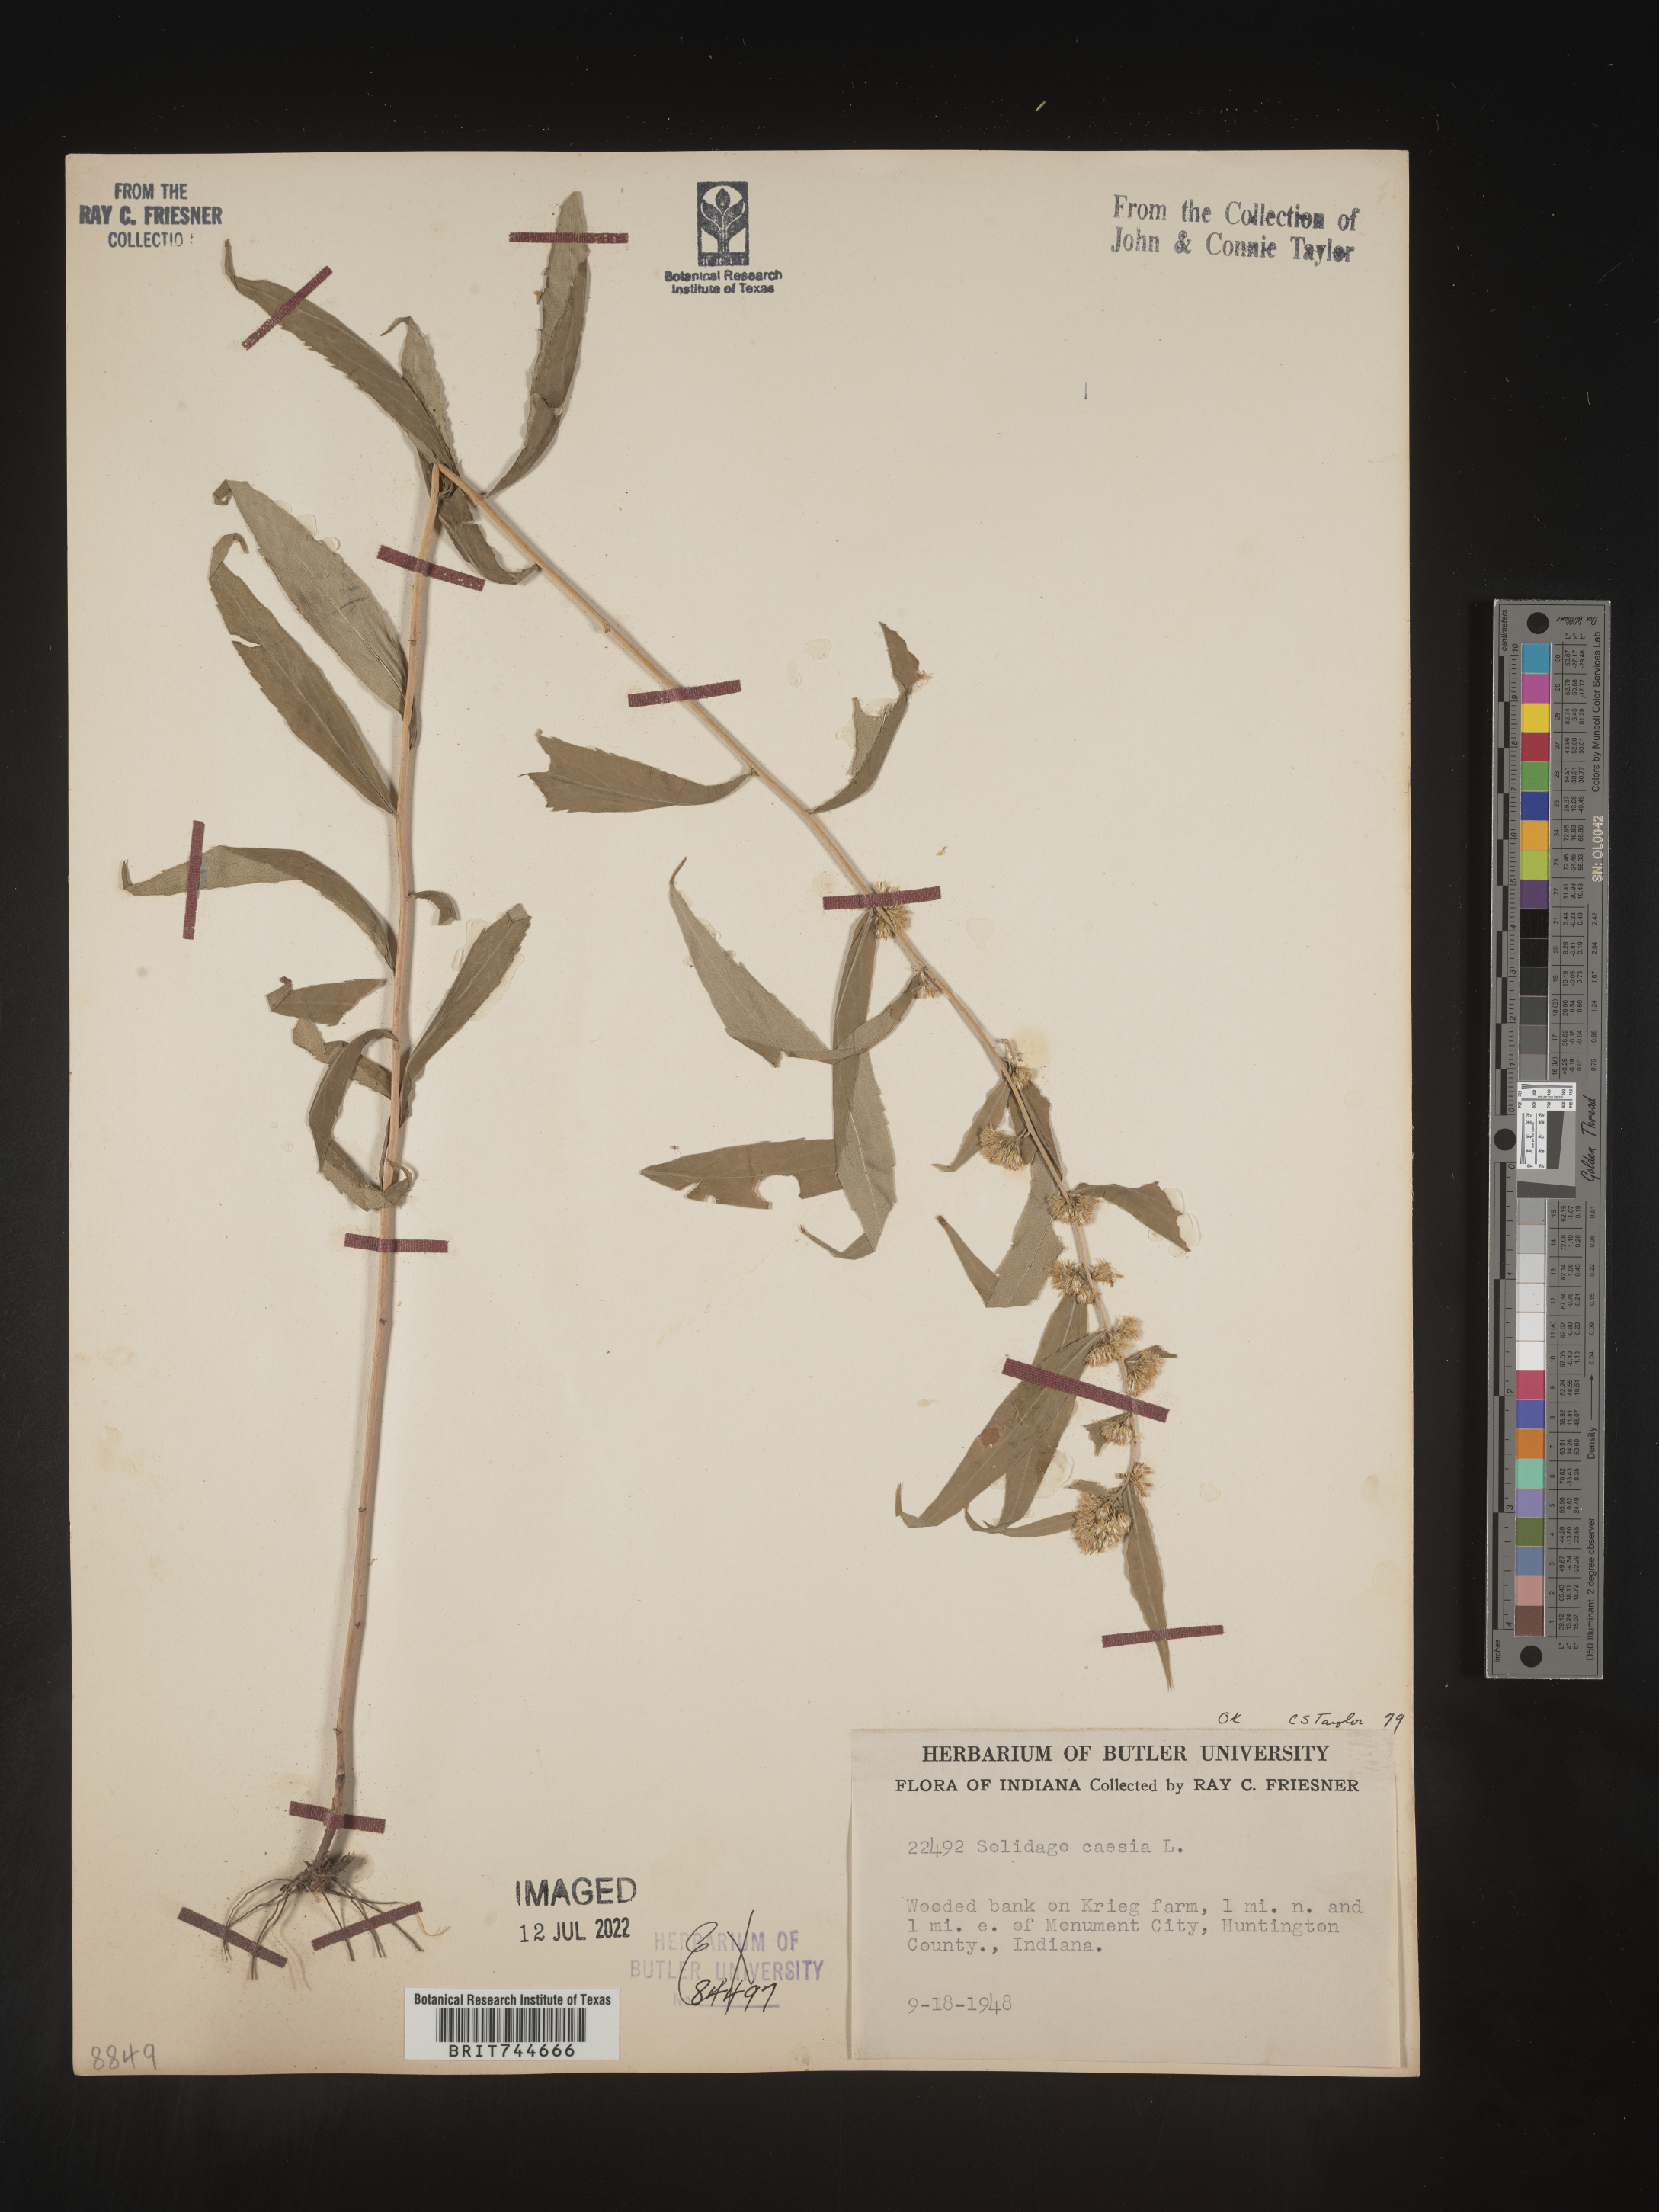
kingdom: Plantae
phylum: Tracheophyta
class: Magnoliopsida
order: Asterales
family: Asteraceae
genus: Solidago
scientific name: Solidago caesia
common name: Woodland goldenrod
